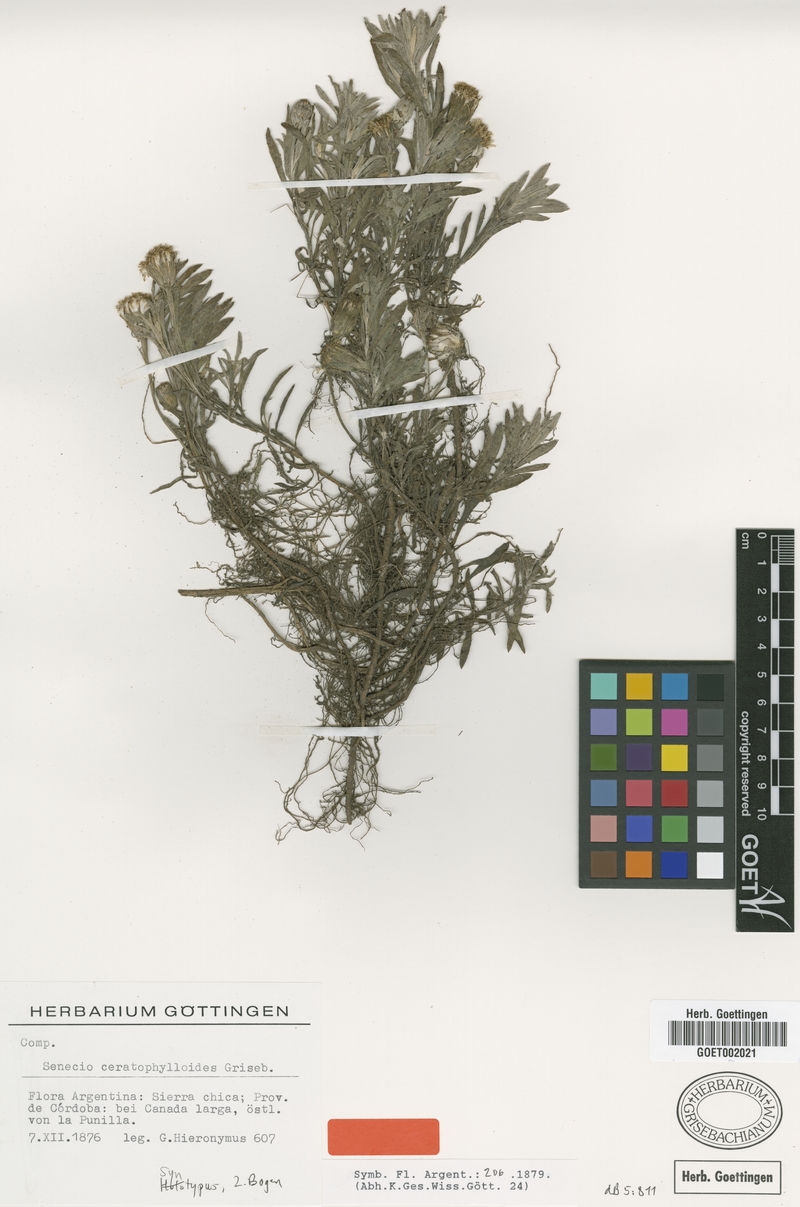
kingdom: Plantae
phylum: Tracheophyta
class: Magnoliopsida
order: Asterales
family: Asteraceae
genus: Senecio
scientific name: Senecio ceratophylloides
